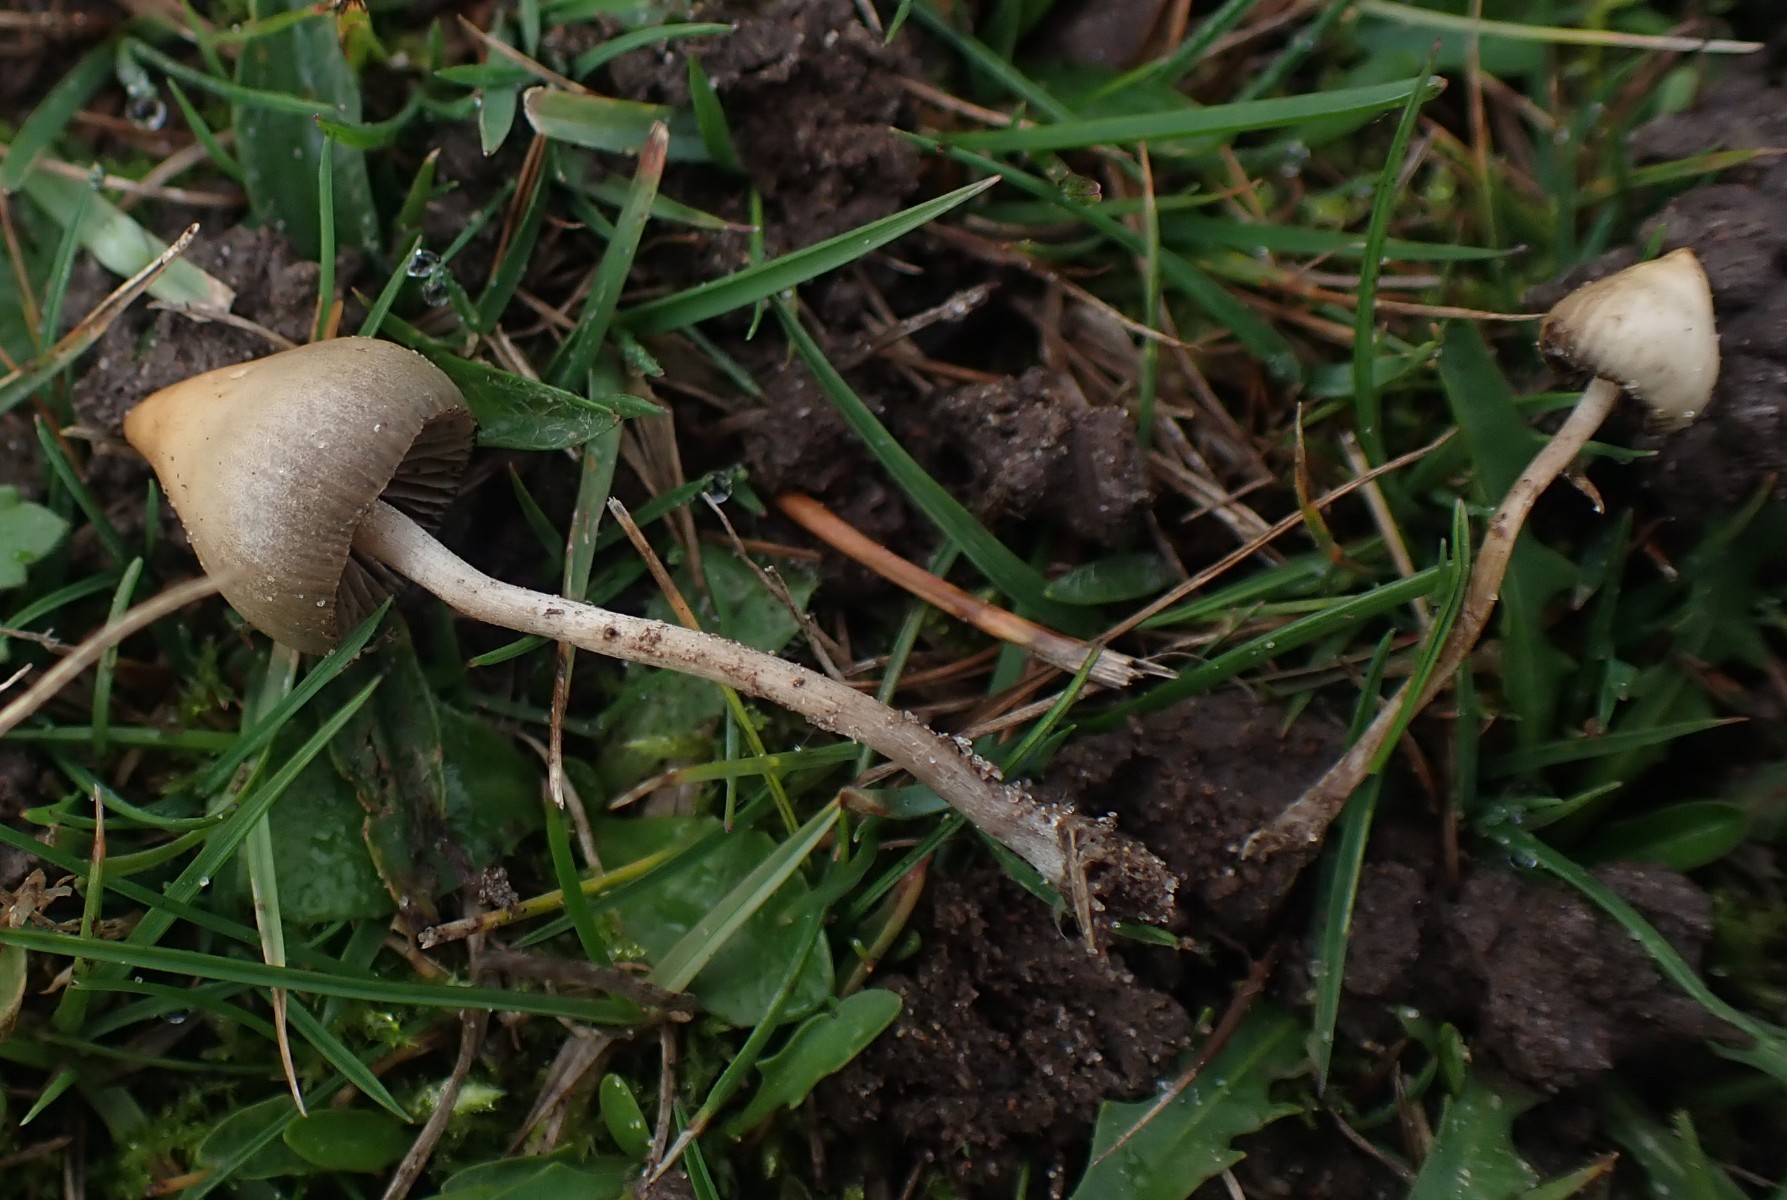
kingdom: Fungi
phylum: Basidiomycota
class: Agaricomycetes
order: Agaricales
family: Hymenogastraceae
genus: Psilocybe
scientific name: Psilocybe semilanceata
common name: spids nøgenhat
